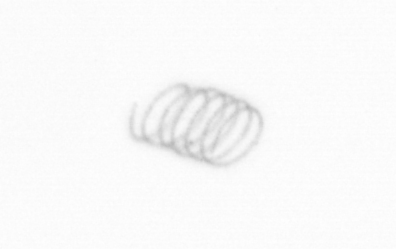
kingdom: Chromista
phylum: Ochrophyta
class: Bacillariophyceae
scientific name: Bacillariophyceae
